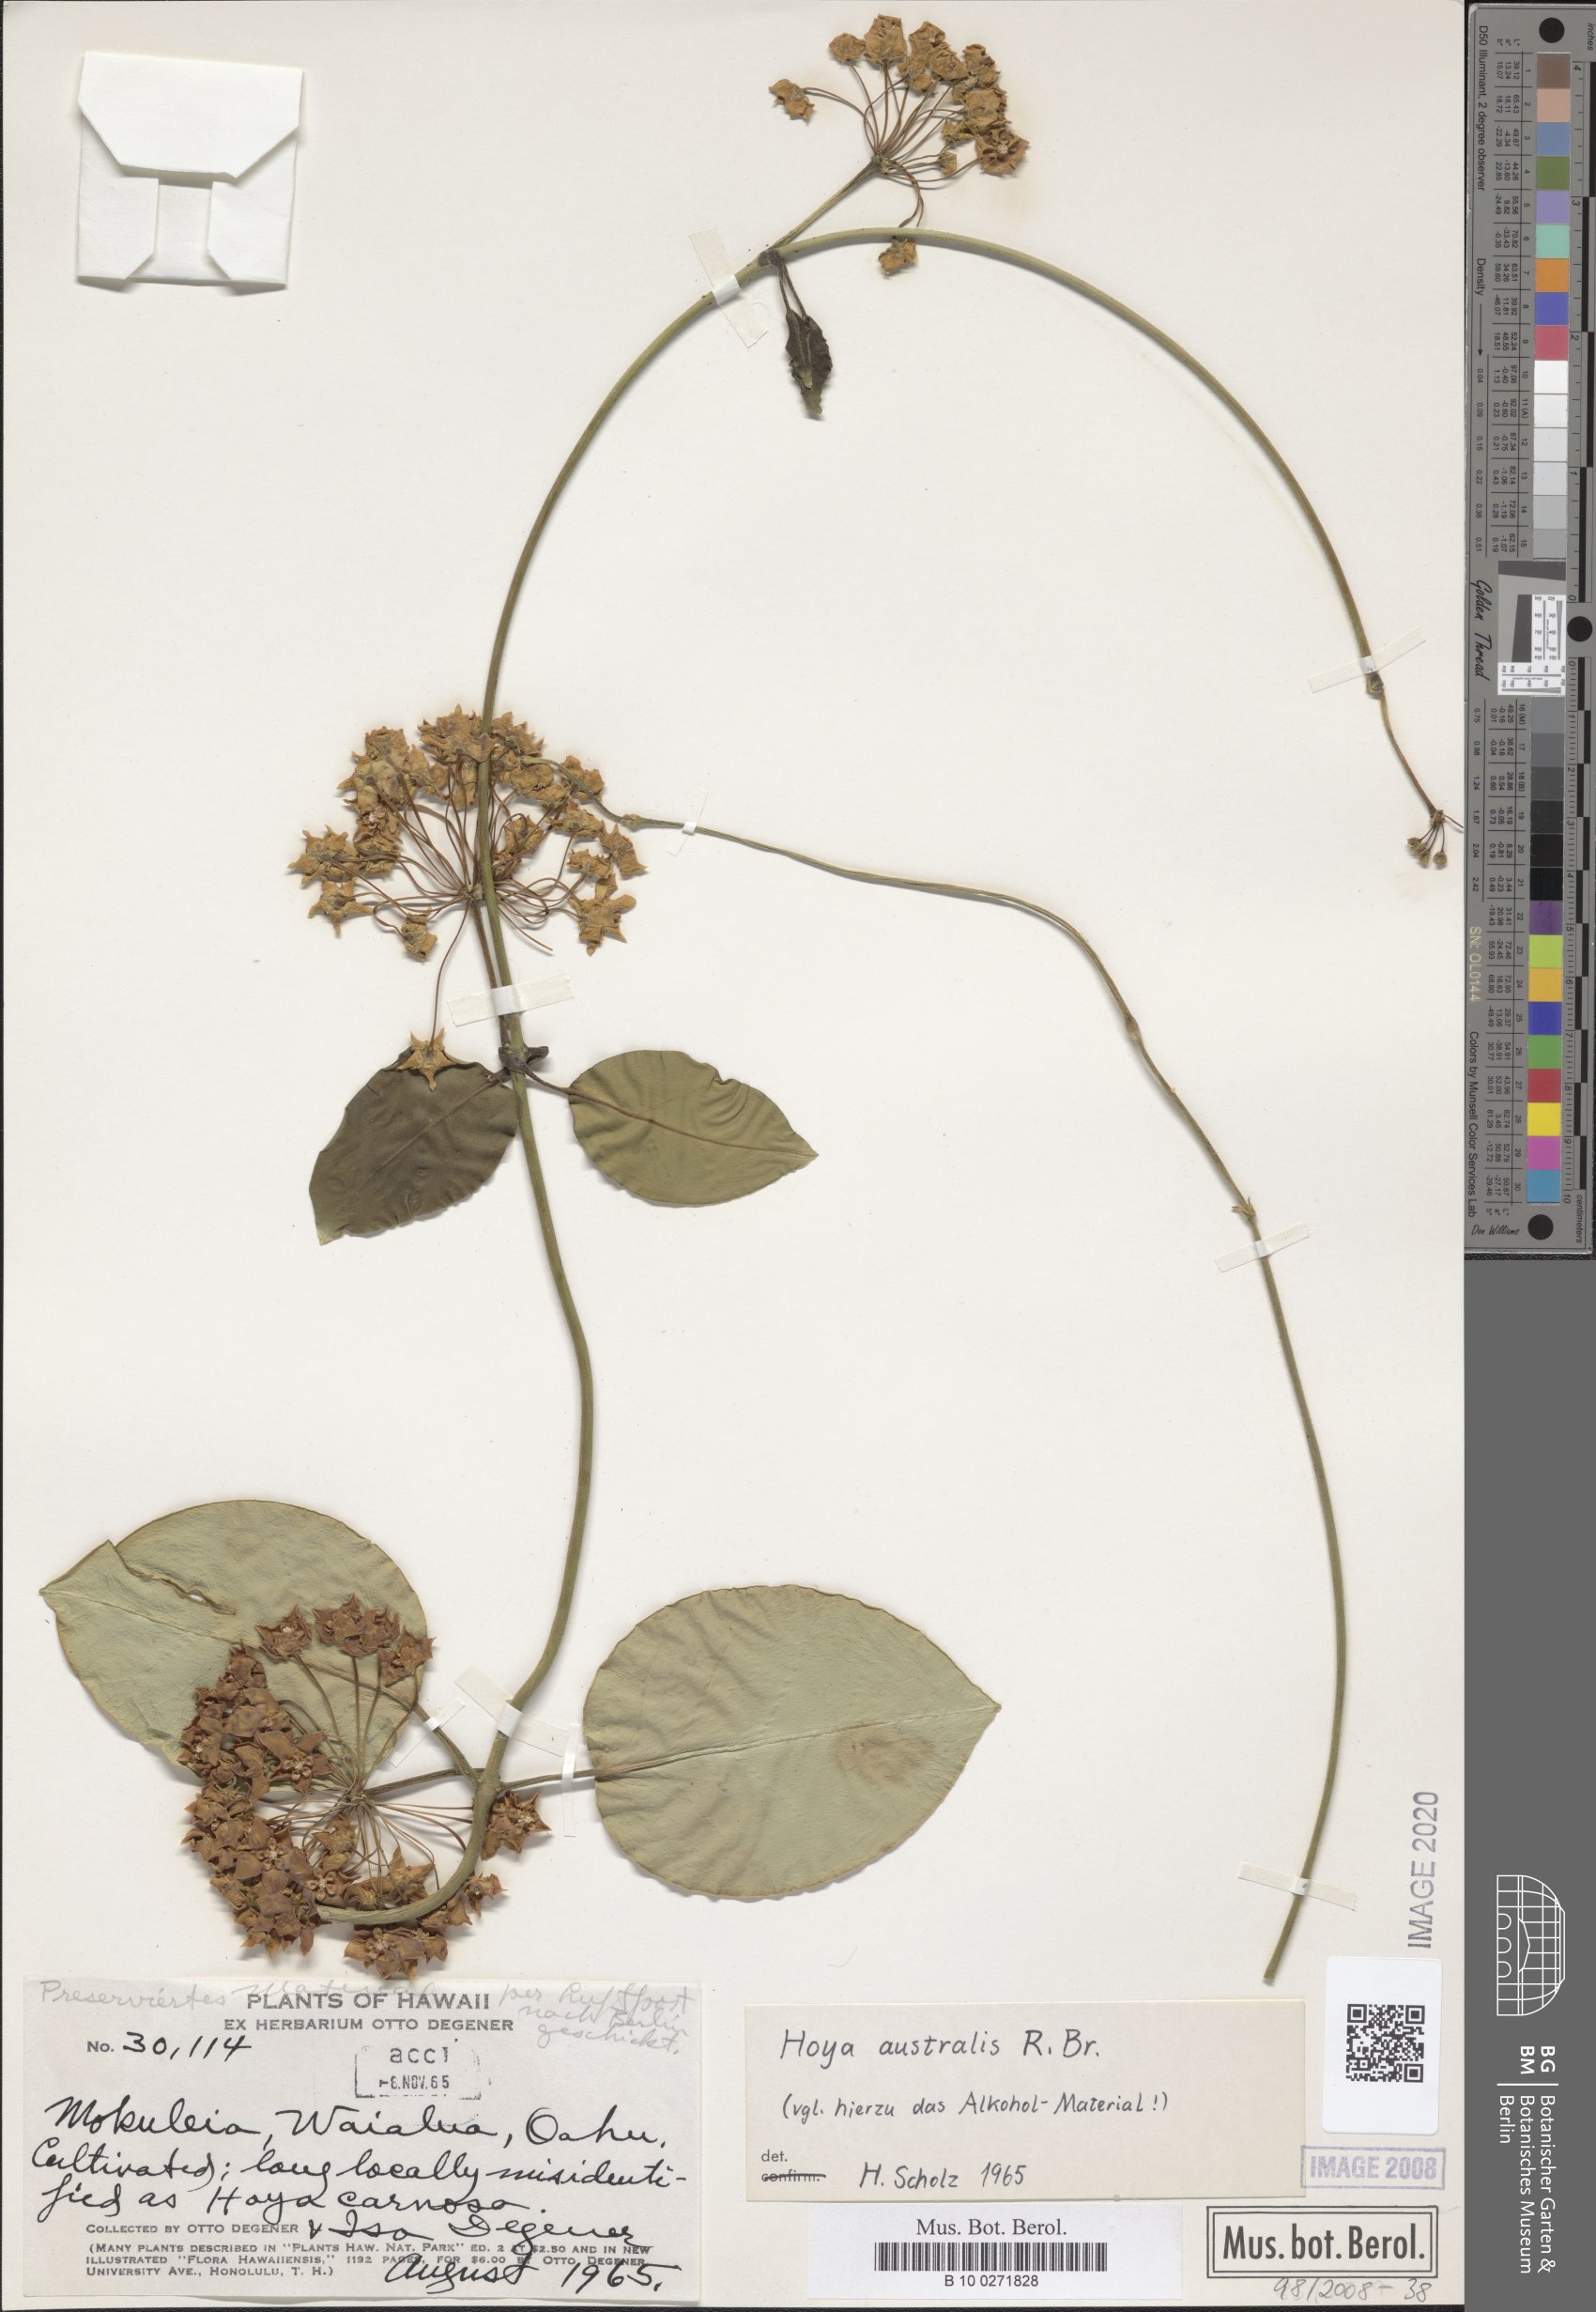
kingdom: Plantae
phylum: Tracheophyta
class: Magnoliopsida
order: Gentianales
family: Apocynaceae
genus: Hoya
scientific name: Hoya australis
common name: Wax flower
